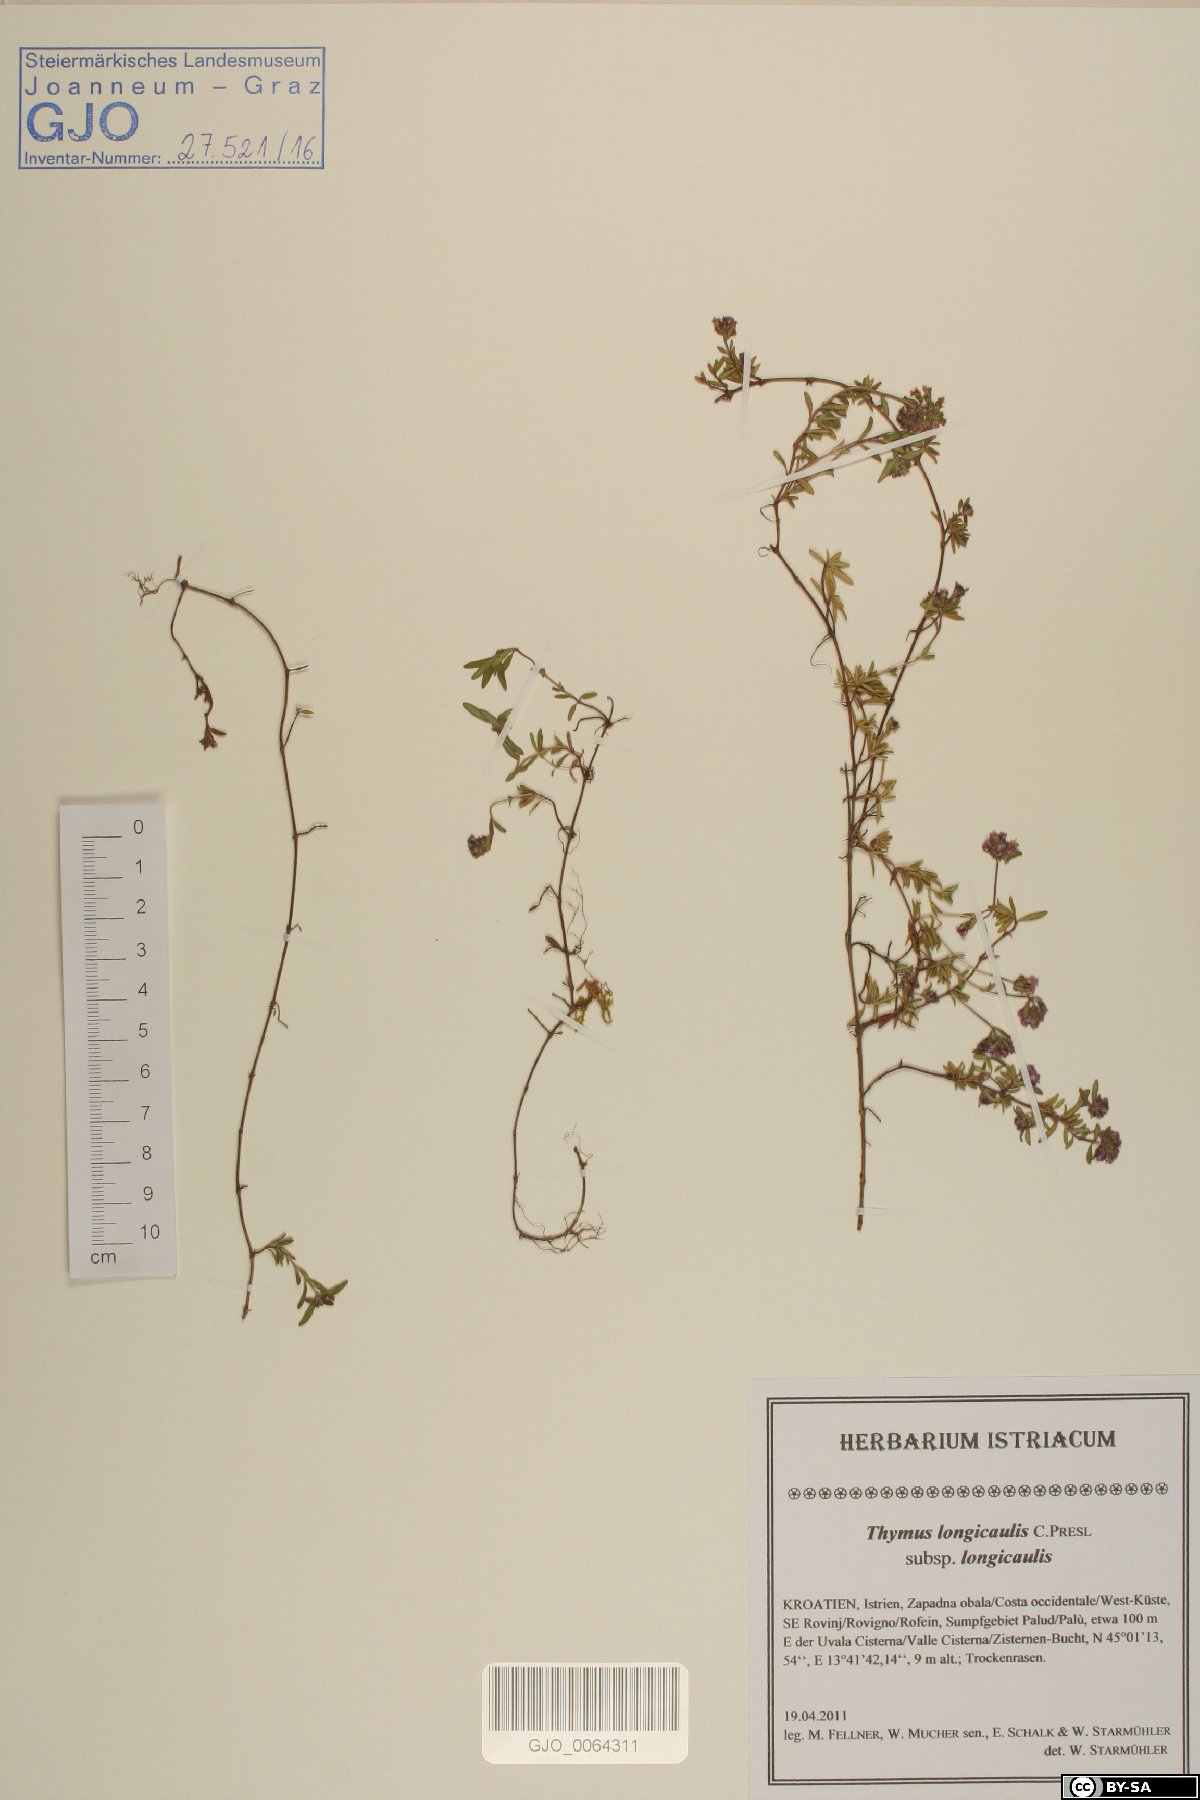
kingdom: Plantae
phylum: Tracheophyta
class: Magnoliopsida
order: Lamiales
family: Lamiaceae
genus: Thymus
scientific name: Thymus longicaulis
